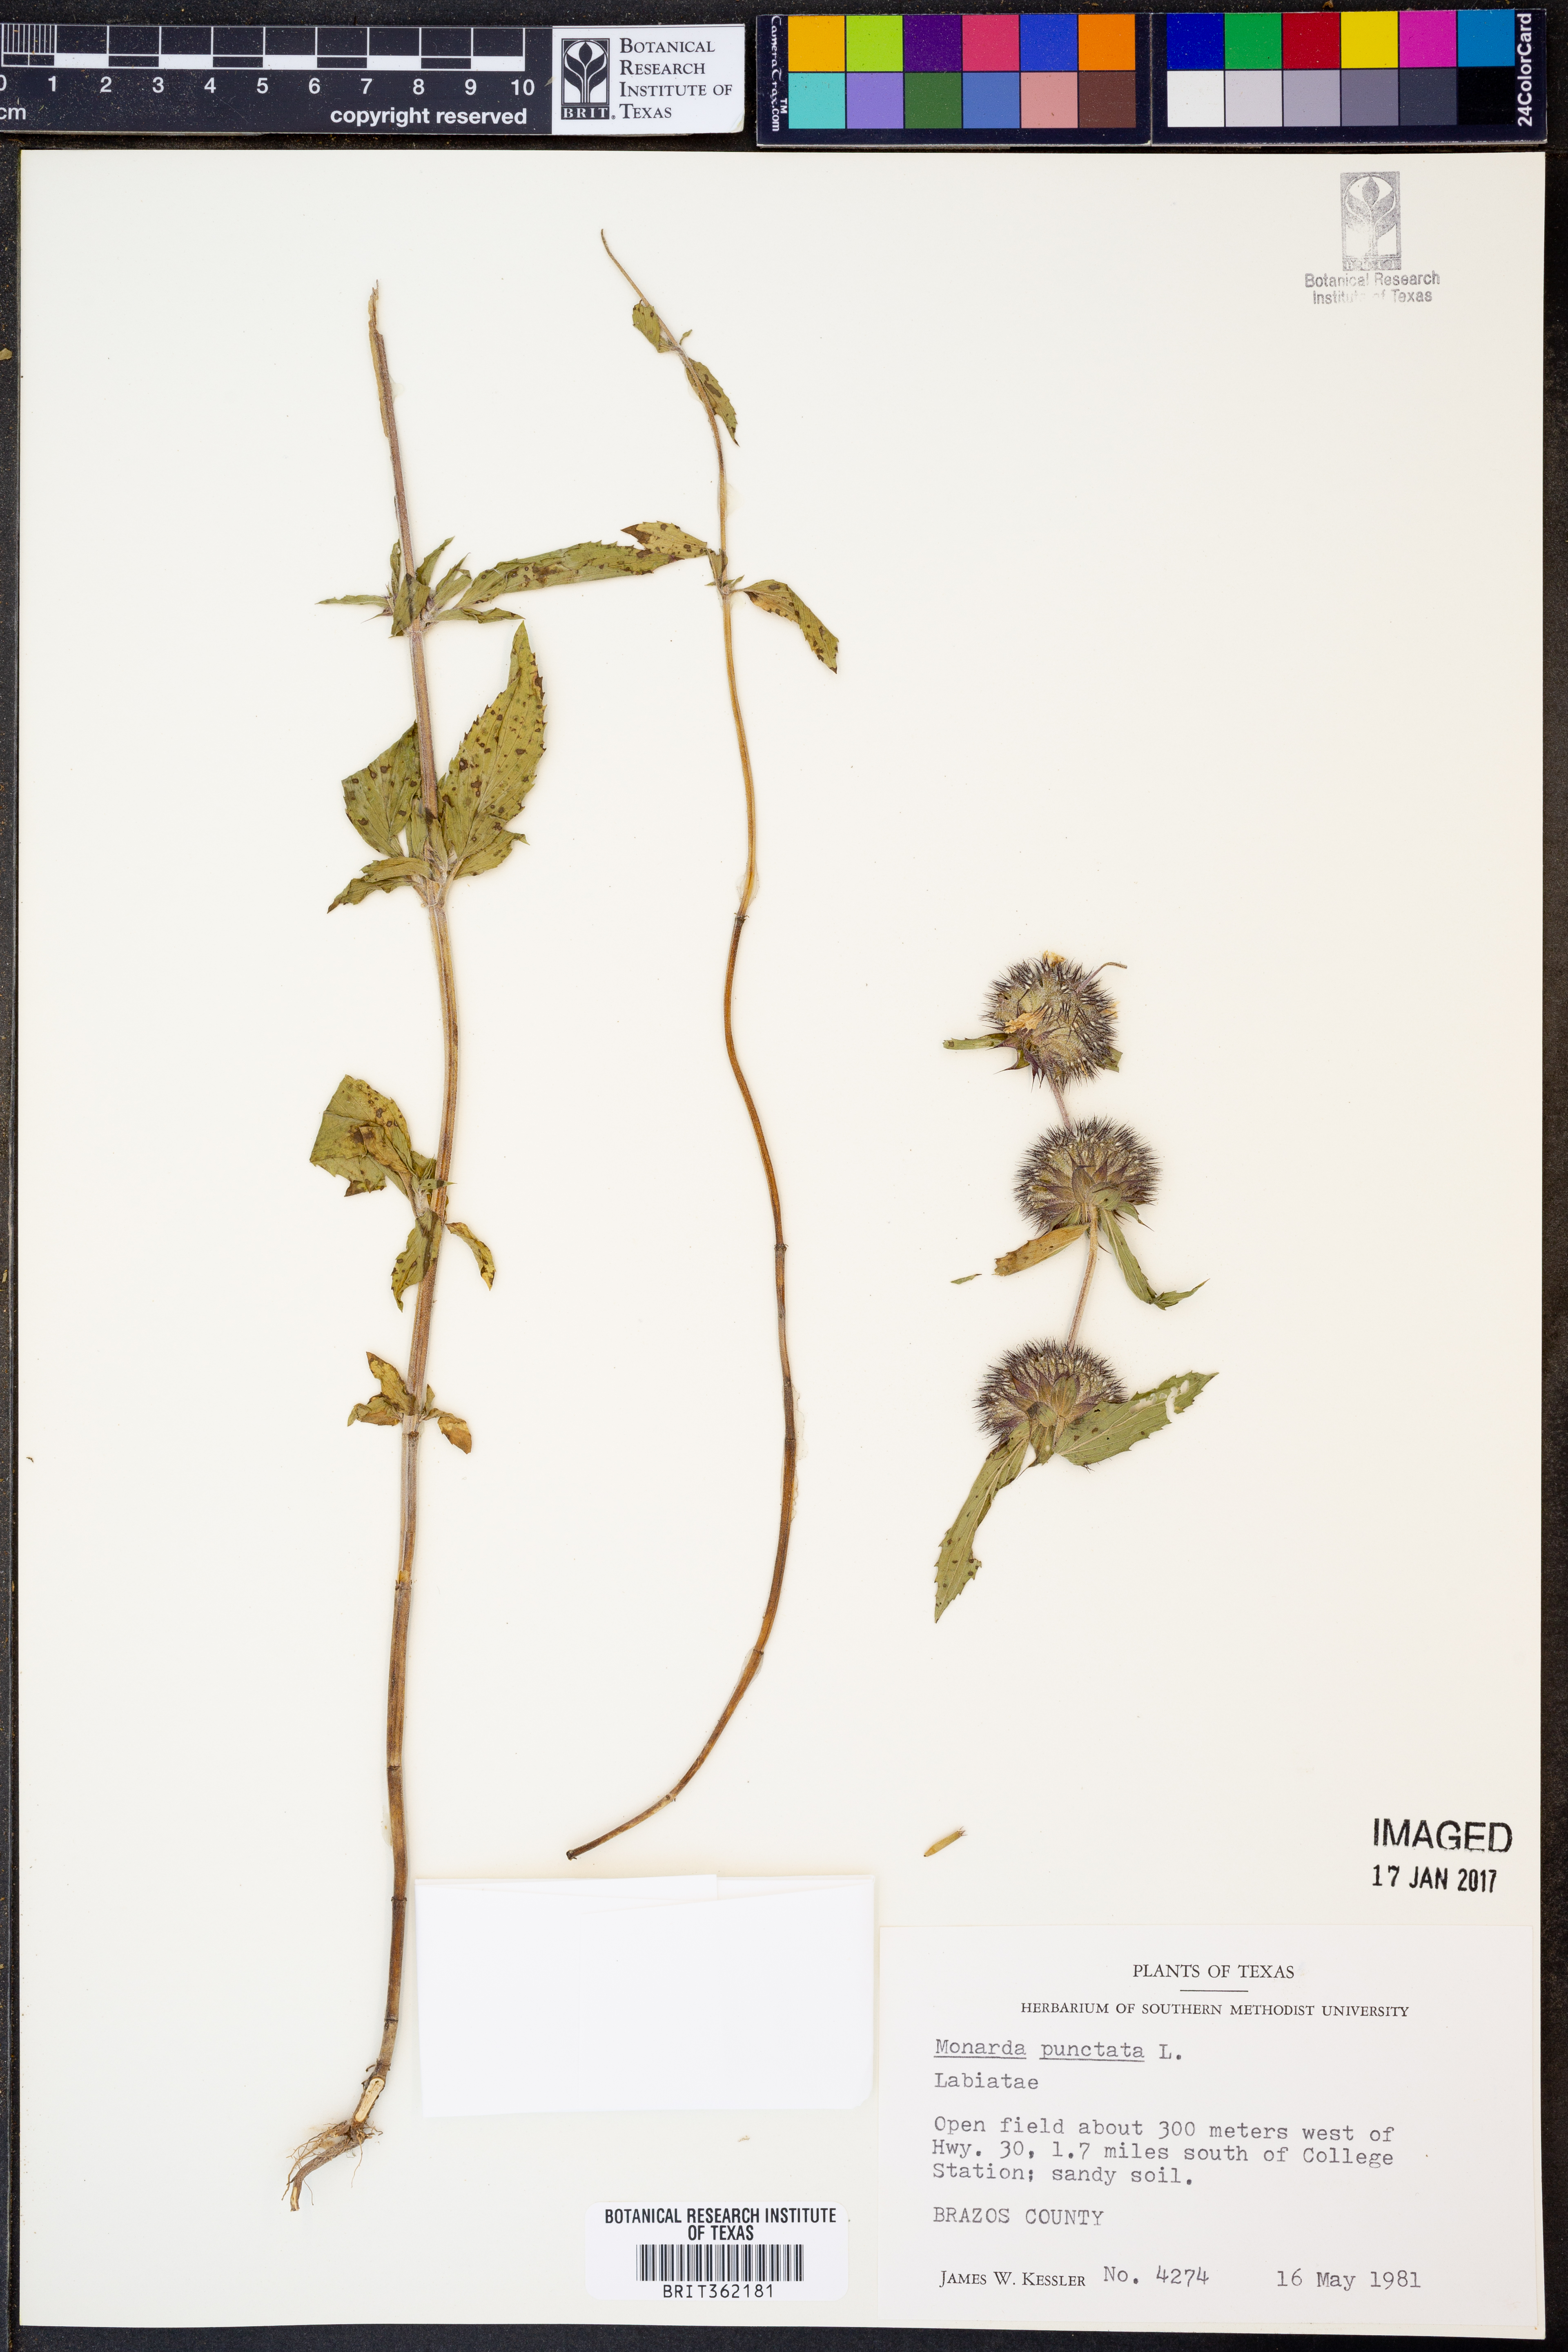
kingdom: Plantae
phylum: Tracheophyta
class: Magnoliopsida
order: Lamiales
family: Lamiaceae
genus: Monarda
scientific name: Monarda punctata
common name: Dotted monarda
